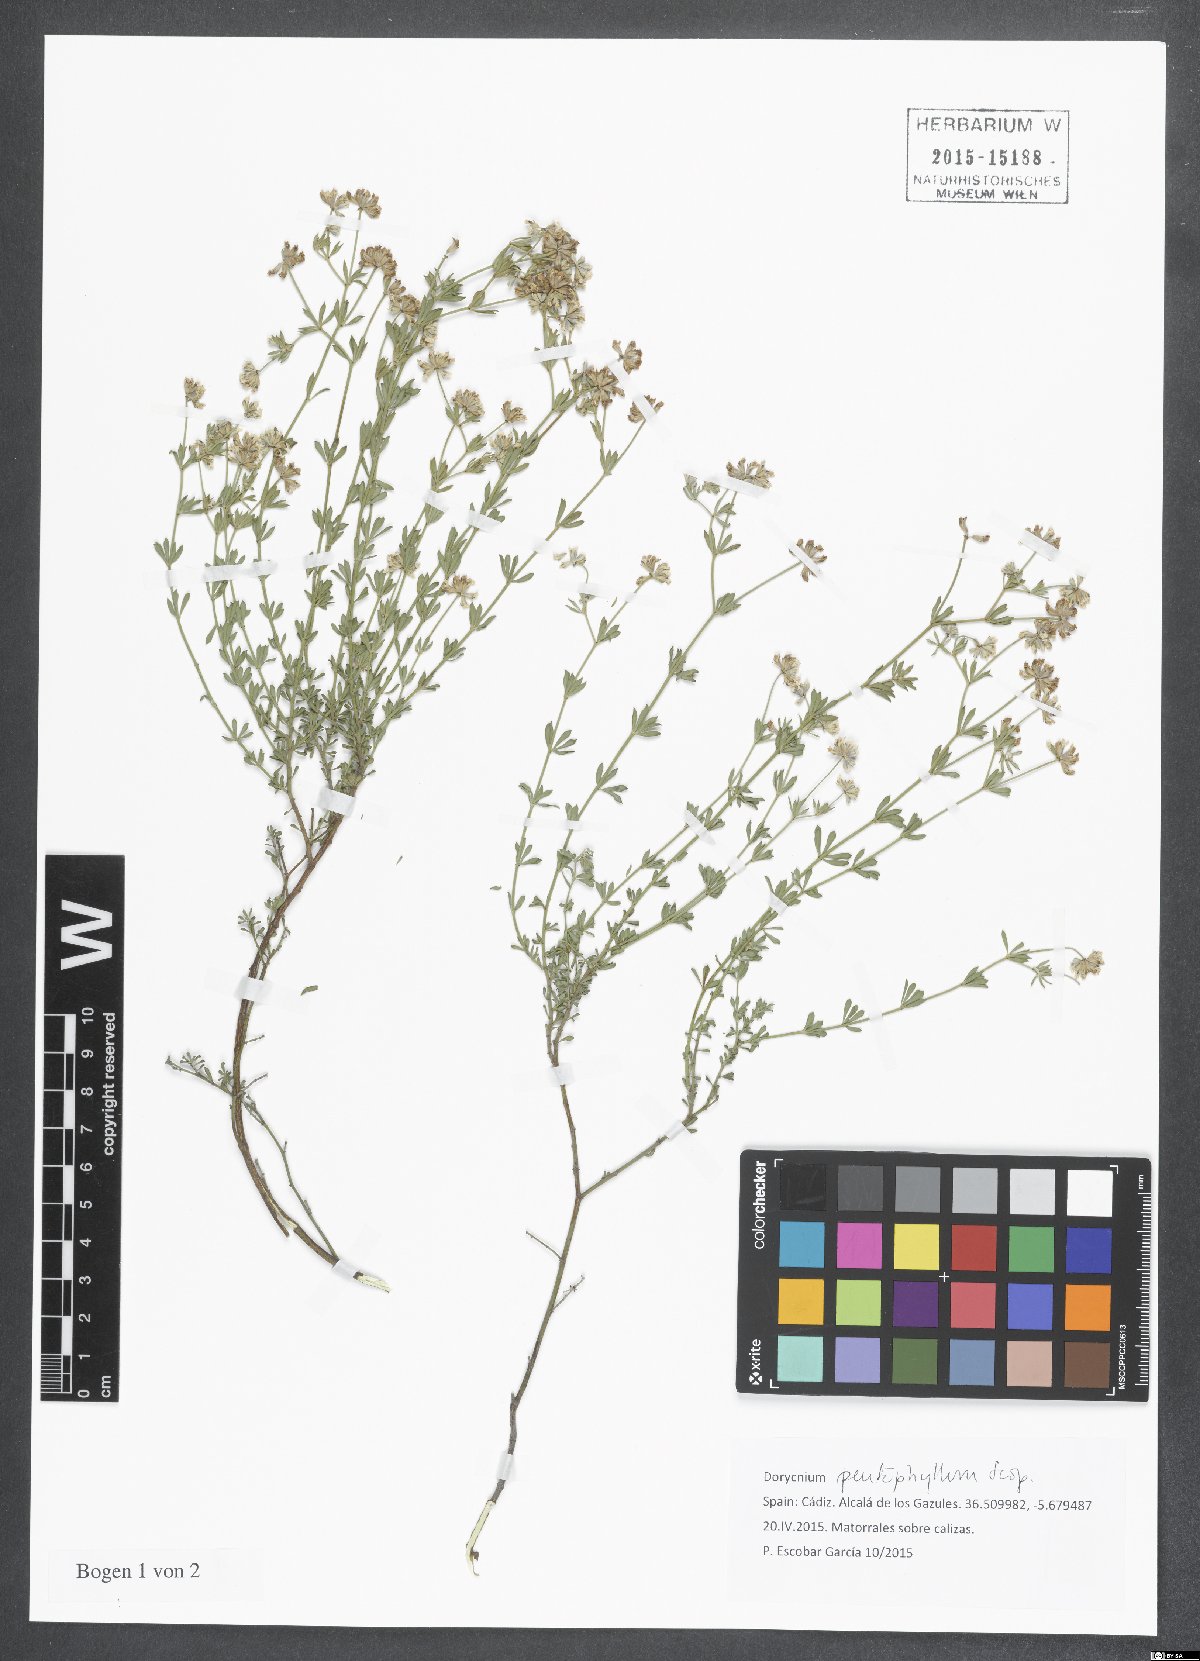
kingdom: Plantae
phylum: Tracheophyta
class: Magnoliopsida
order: Fabales
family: Fabaceae
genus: Lotus
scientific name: Lotus dorycnium
